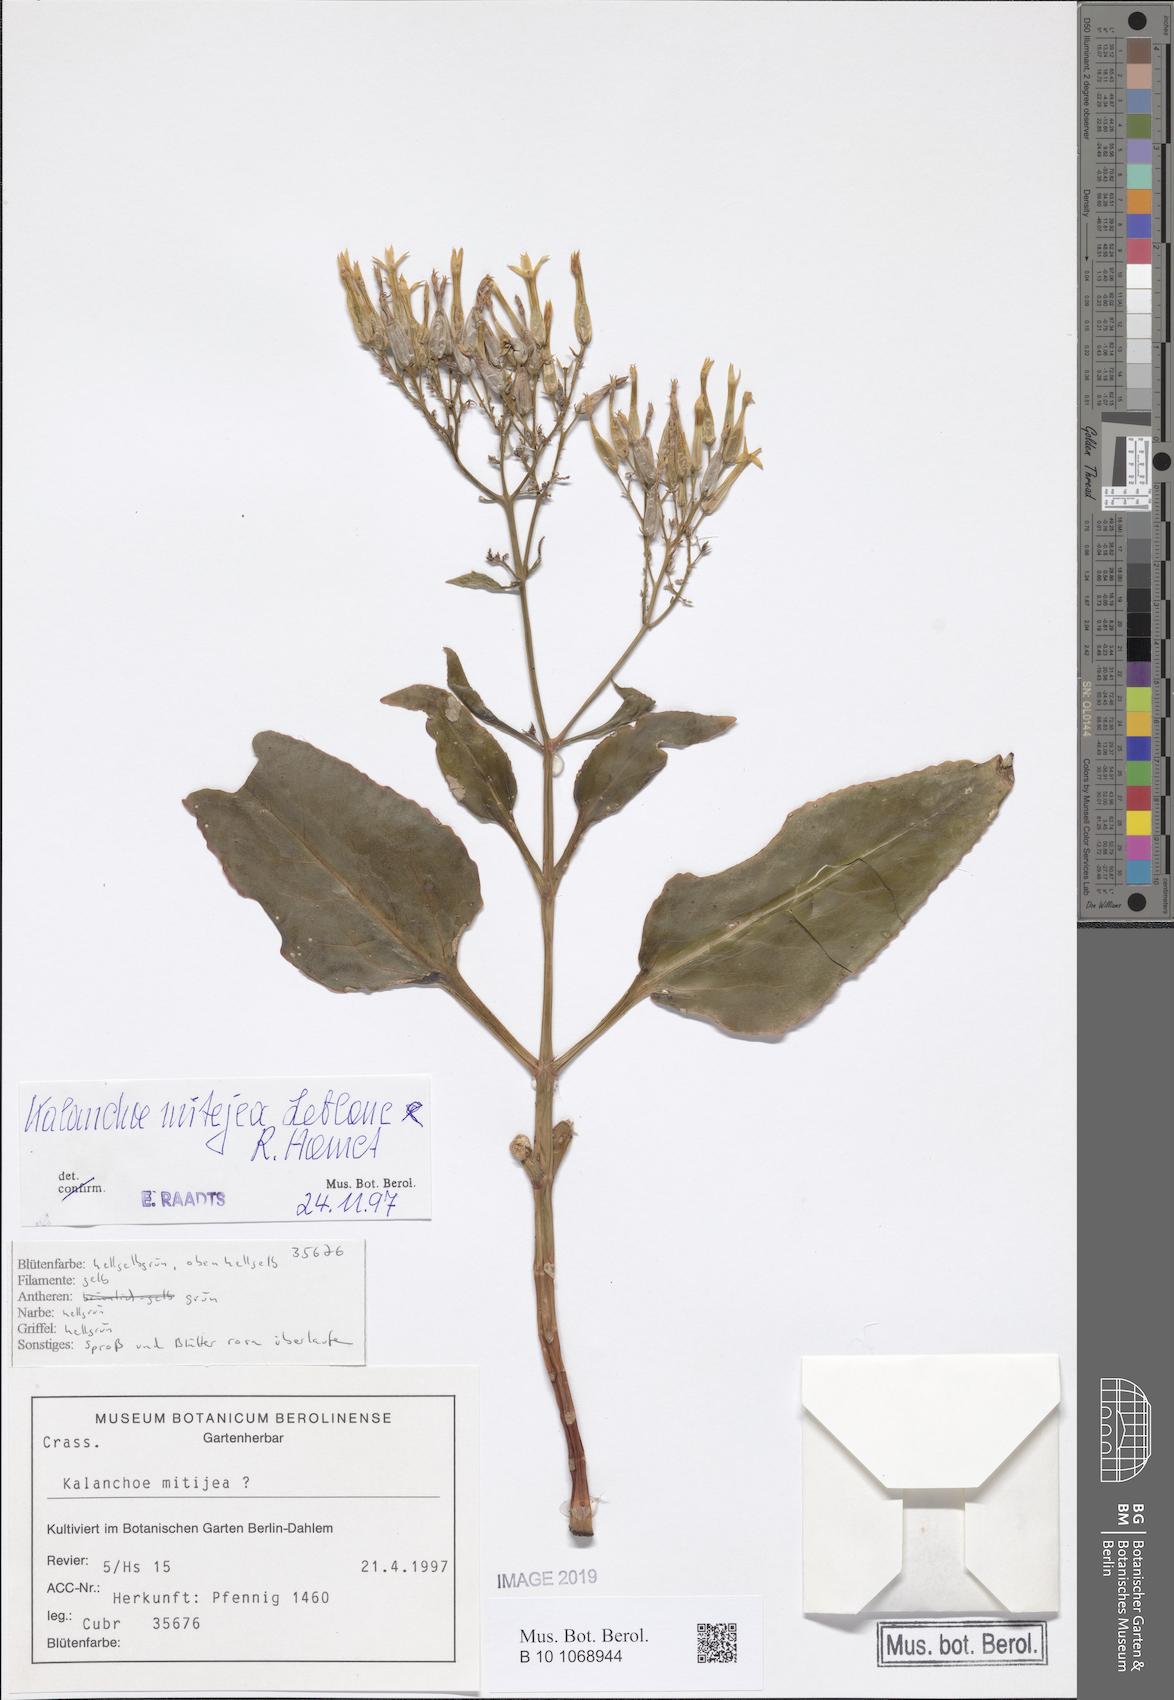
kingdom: Plantae
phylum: Tracheophyta
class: Magnoliopsida
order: Saxifragales
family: Crassulaceae
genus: Kalanchoe
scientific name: Kalanchoe mitejea
